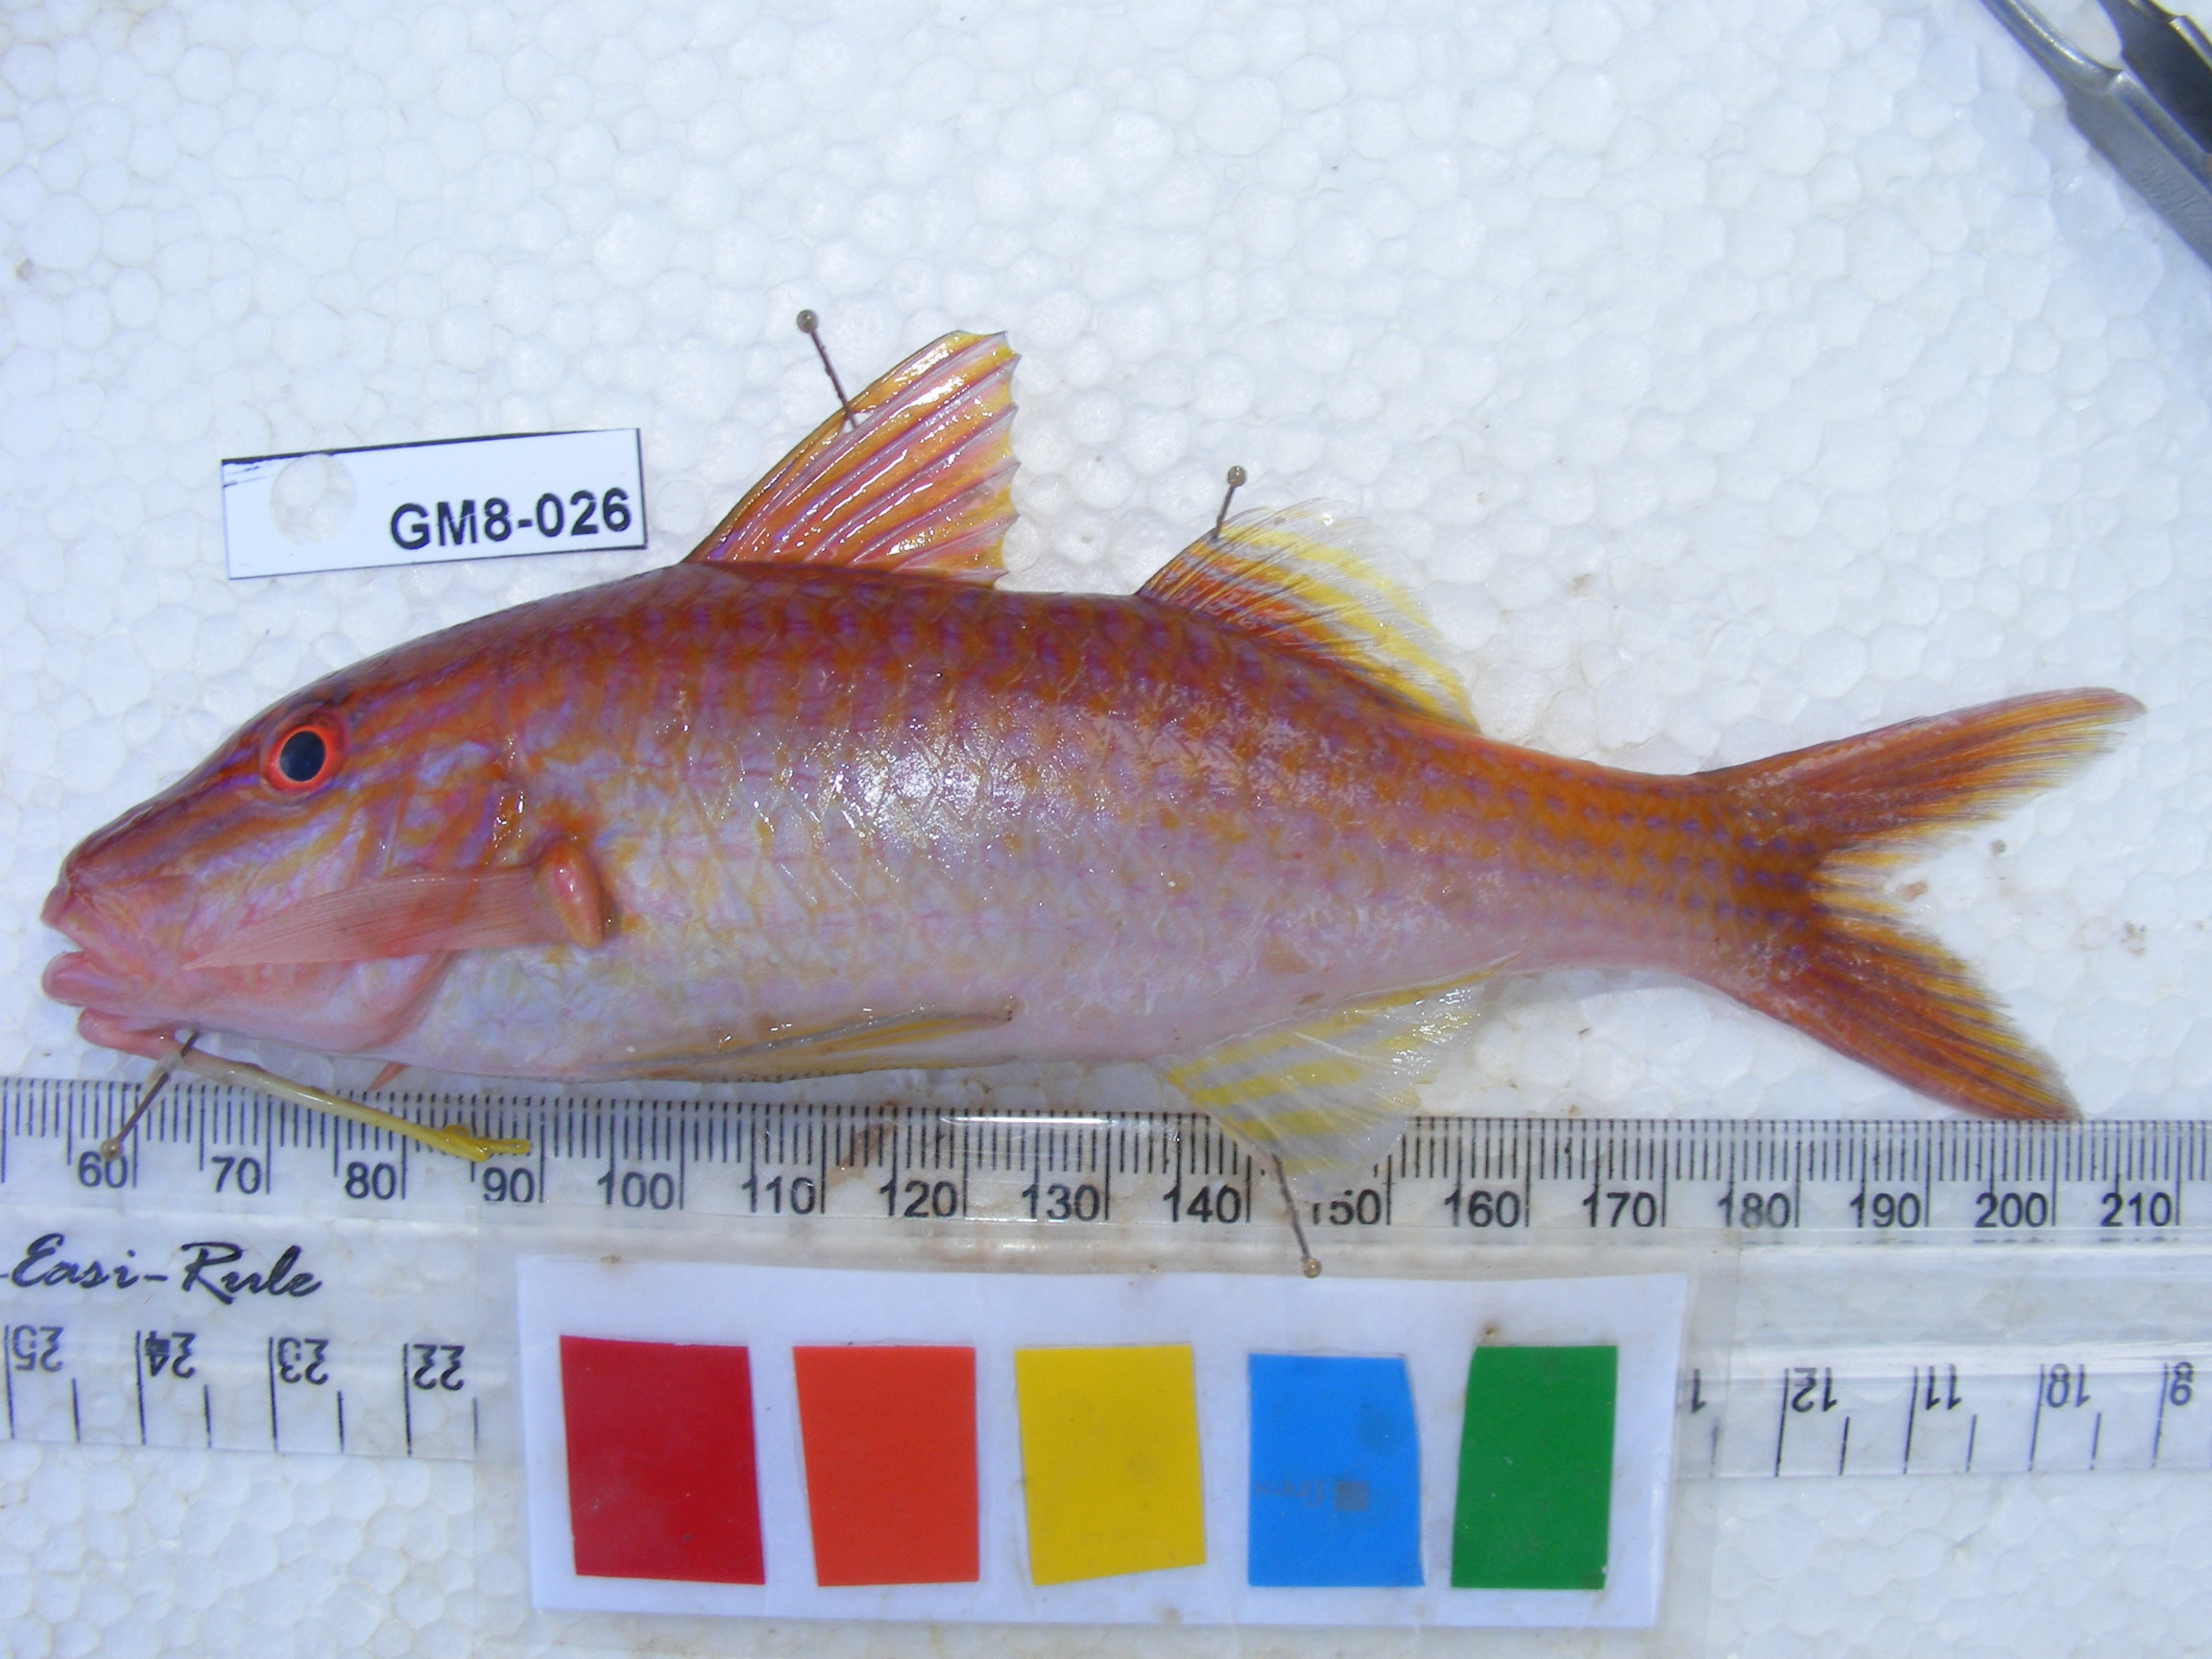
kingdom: Animalia
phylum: Chordata
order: Perciformes
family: Mullidae
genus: Parupeneus
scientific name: Parupeneus cyclostomus
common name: Goldsaddle goatfish
